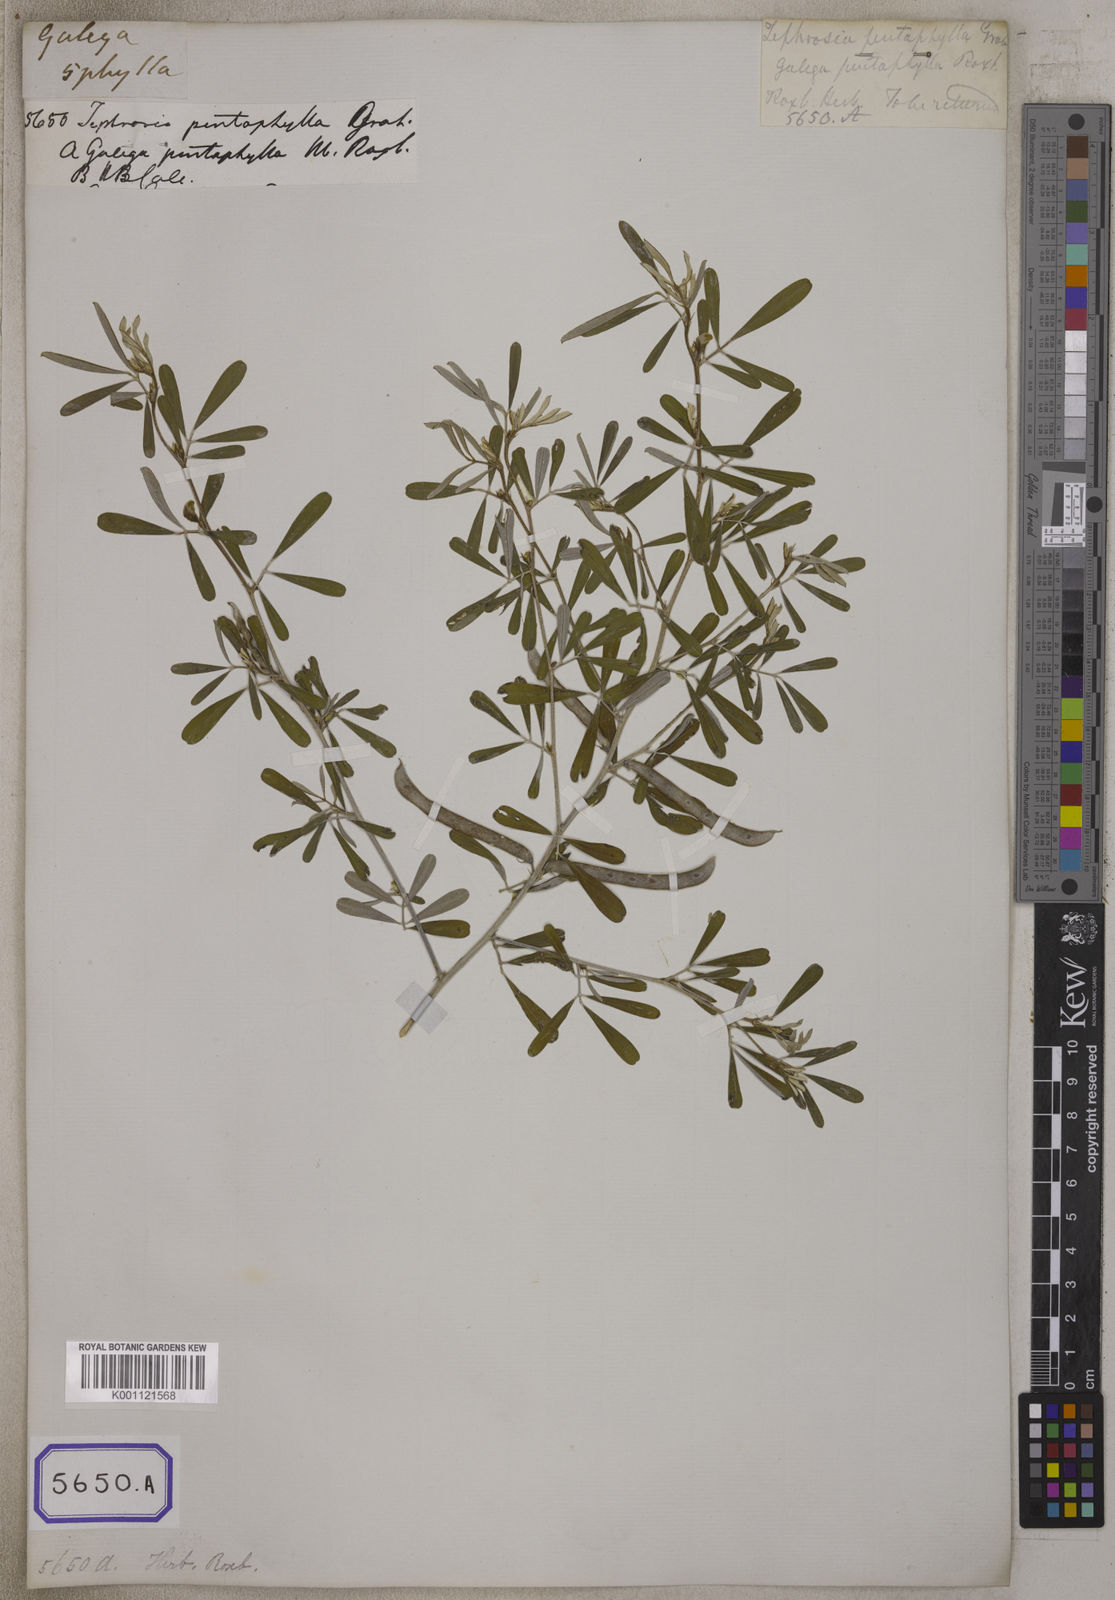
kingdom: Plantae
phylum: Tracheophyta
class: Magnoliopsida
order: Fabales
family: Fabaceae
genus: Tephrosia
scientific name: Tephrosia
